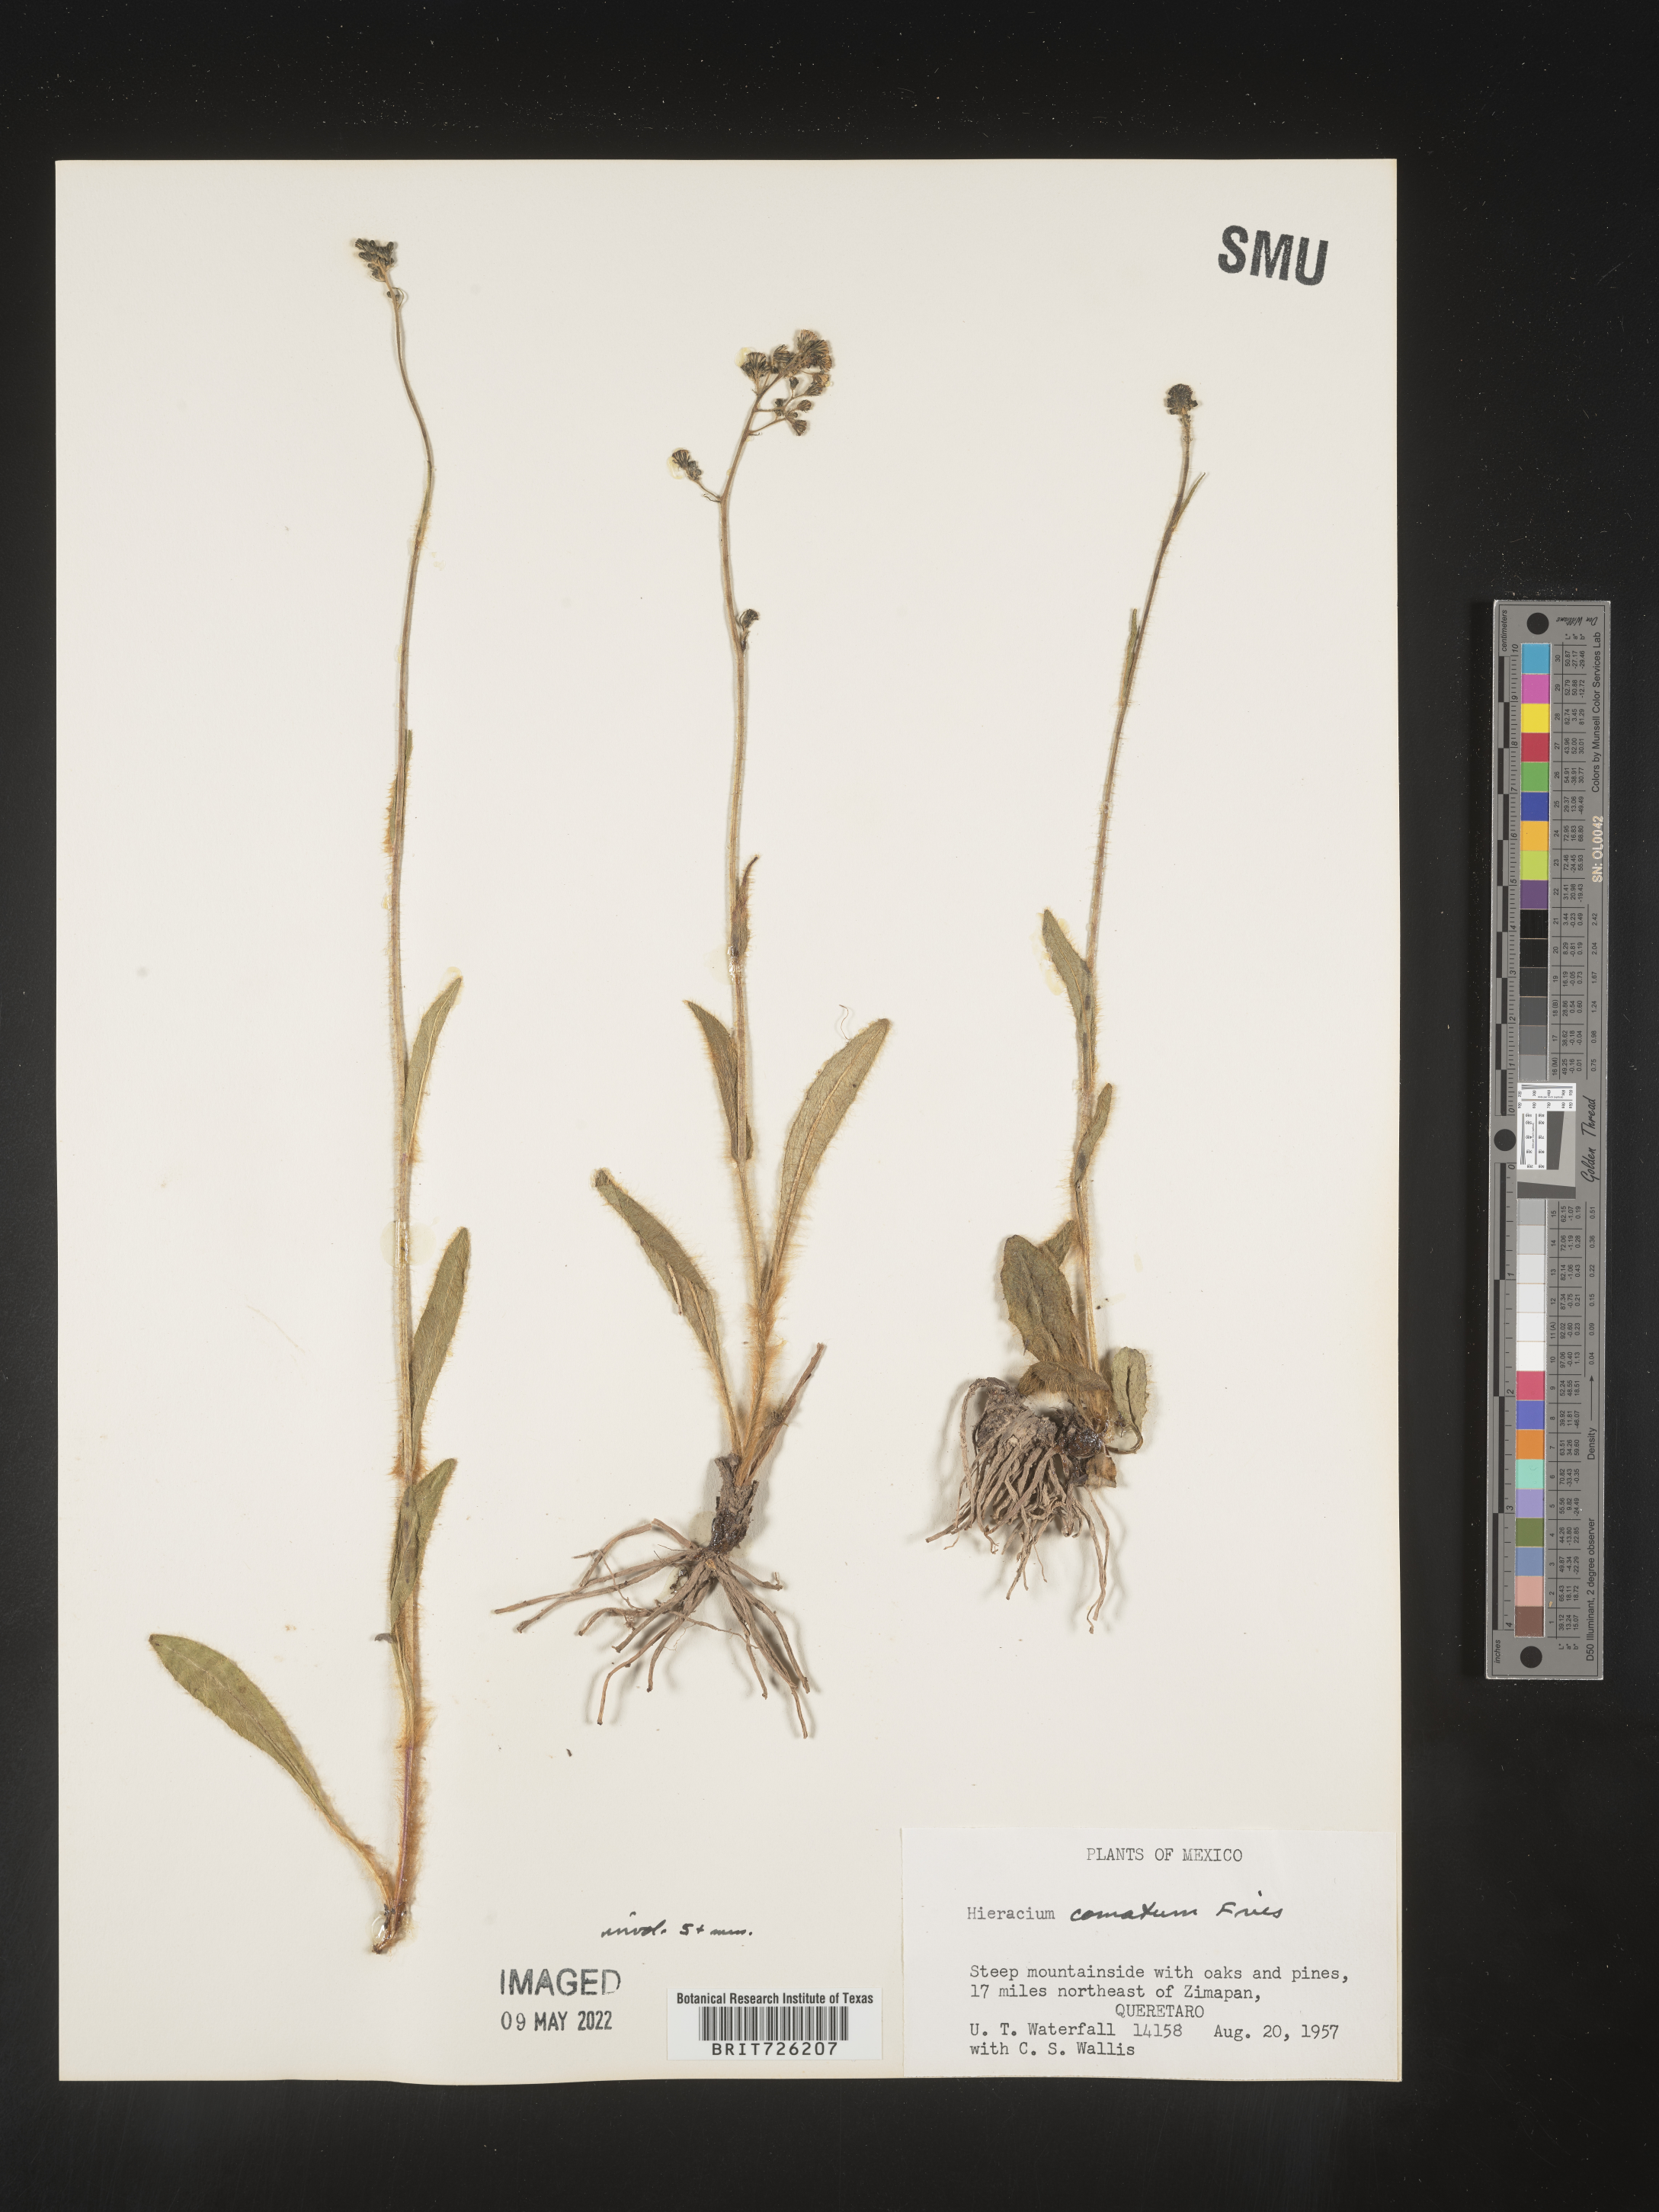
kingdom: Plantae
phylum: Tracheophyta
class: Magnoliopsida
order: Asterales
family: Asteraceae
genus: Hieracium
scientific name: Hieracium
